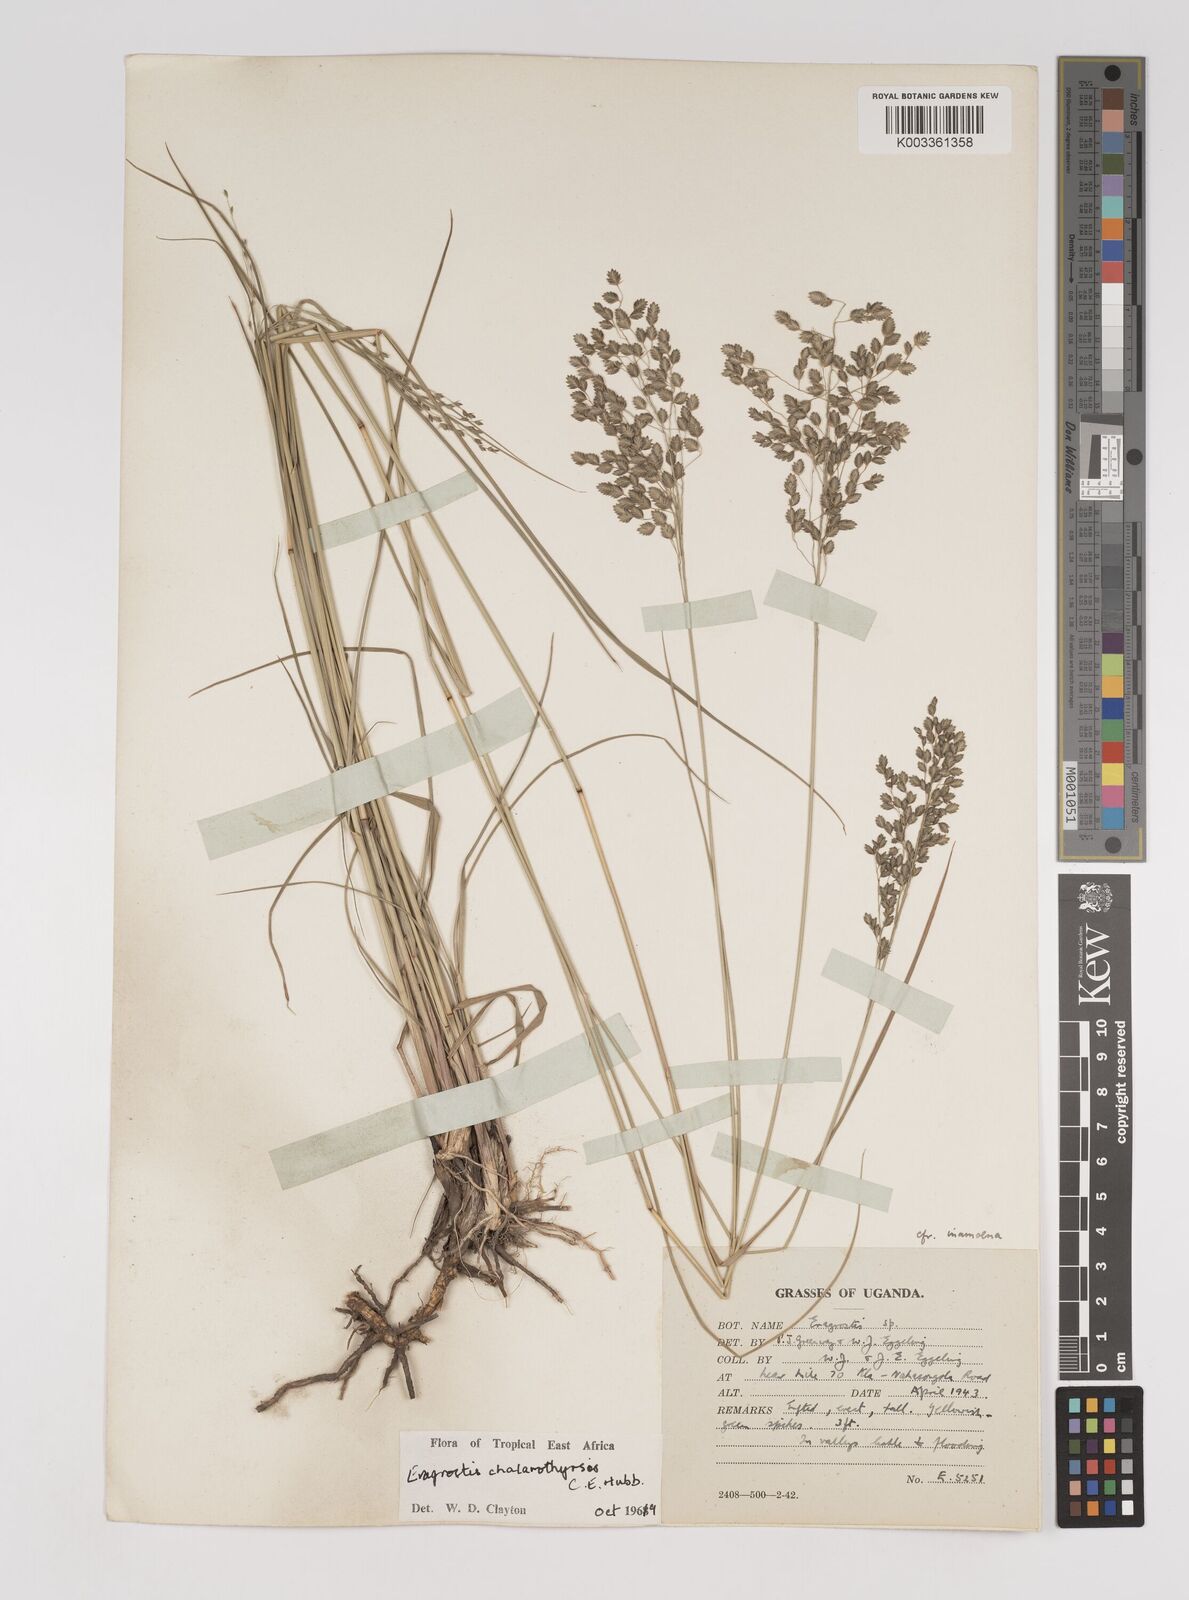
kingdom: Plantae
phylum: Tracheophyta
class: Liliopsida
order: Poales
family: Poaceae
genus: Eragrostis
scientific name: Eragrostis chalarothyrsos
